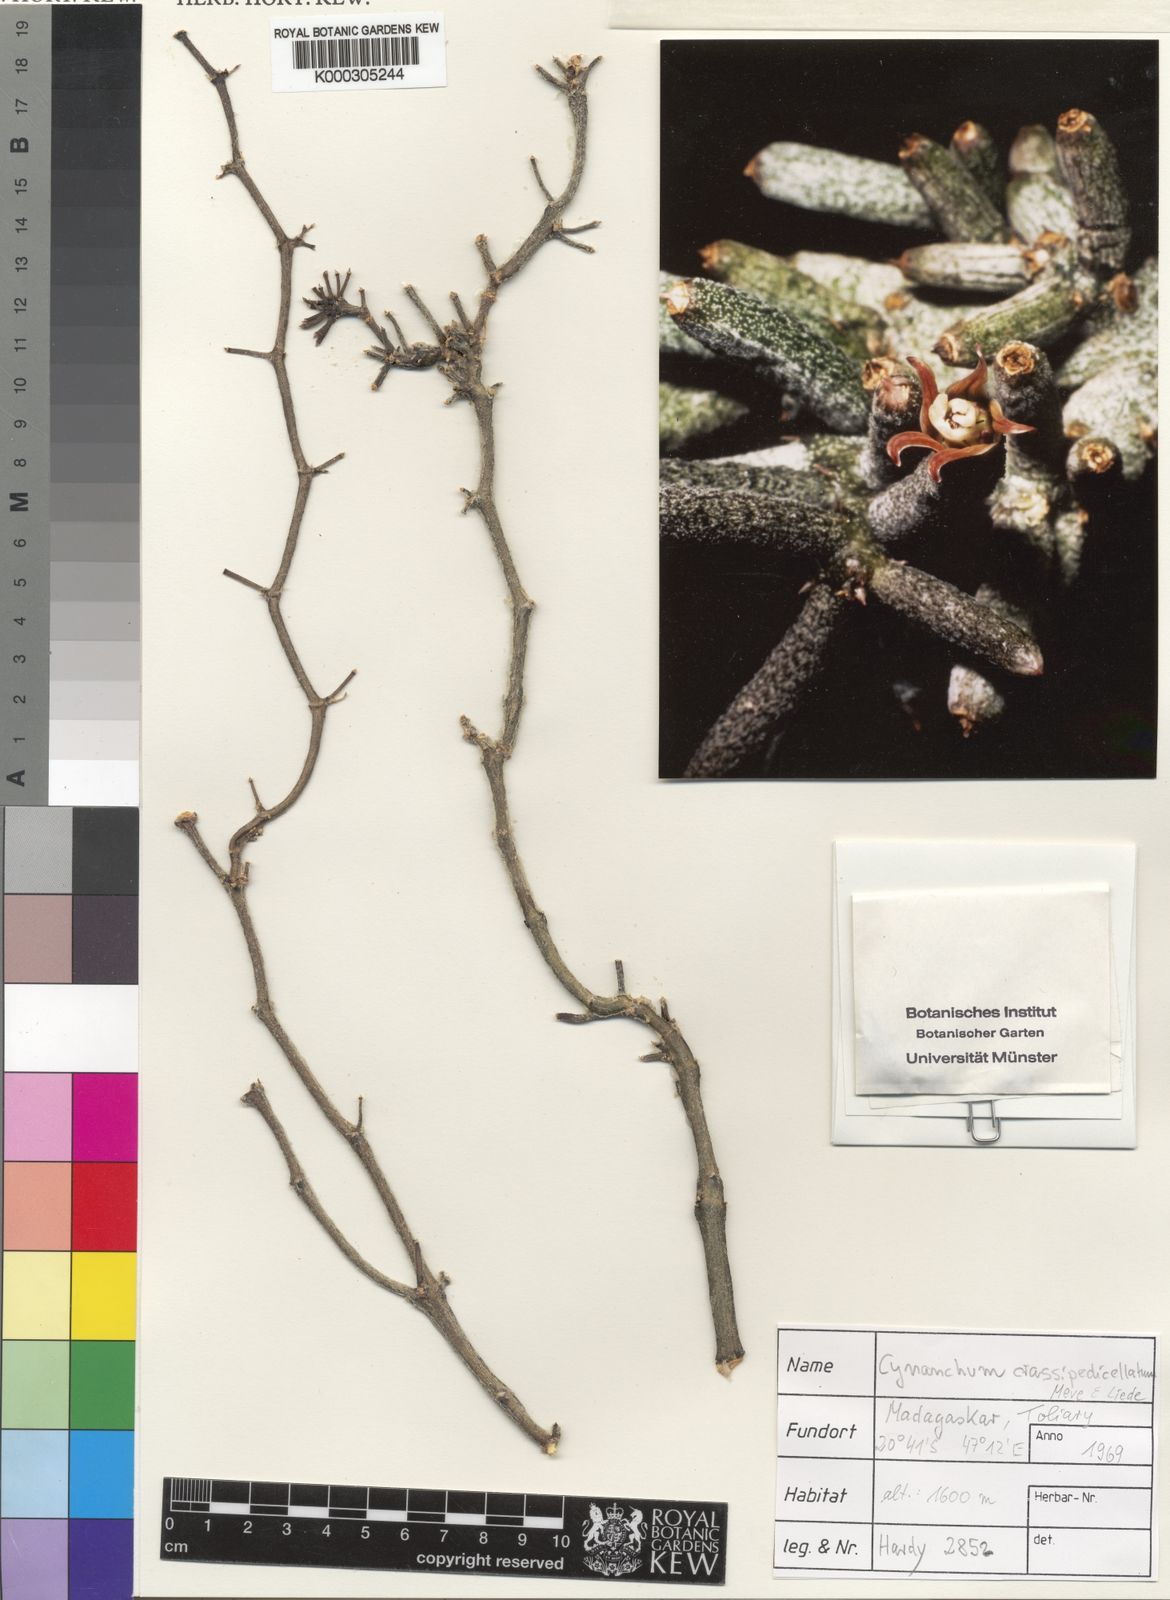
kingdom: Plantae
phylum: Tracheophyta
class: Magnoliopsida
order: Gentianales
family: Apocynaceae
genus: Cynanchum
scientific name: Cynanchum crassipedicellatum
